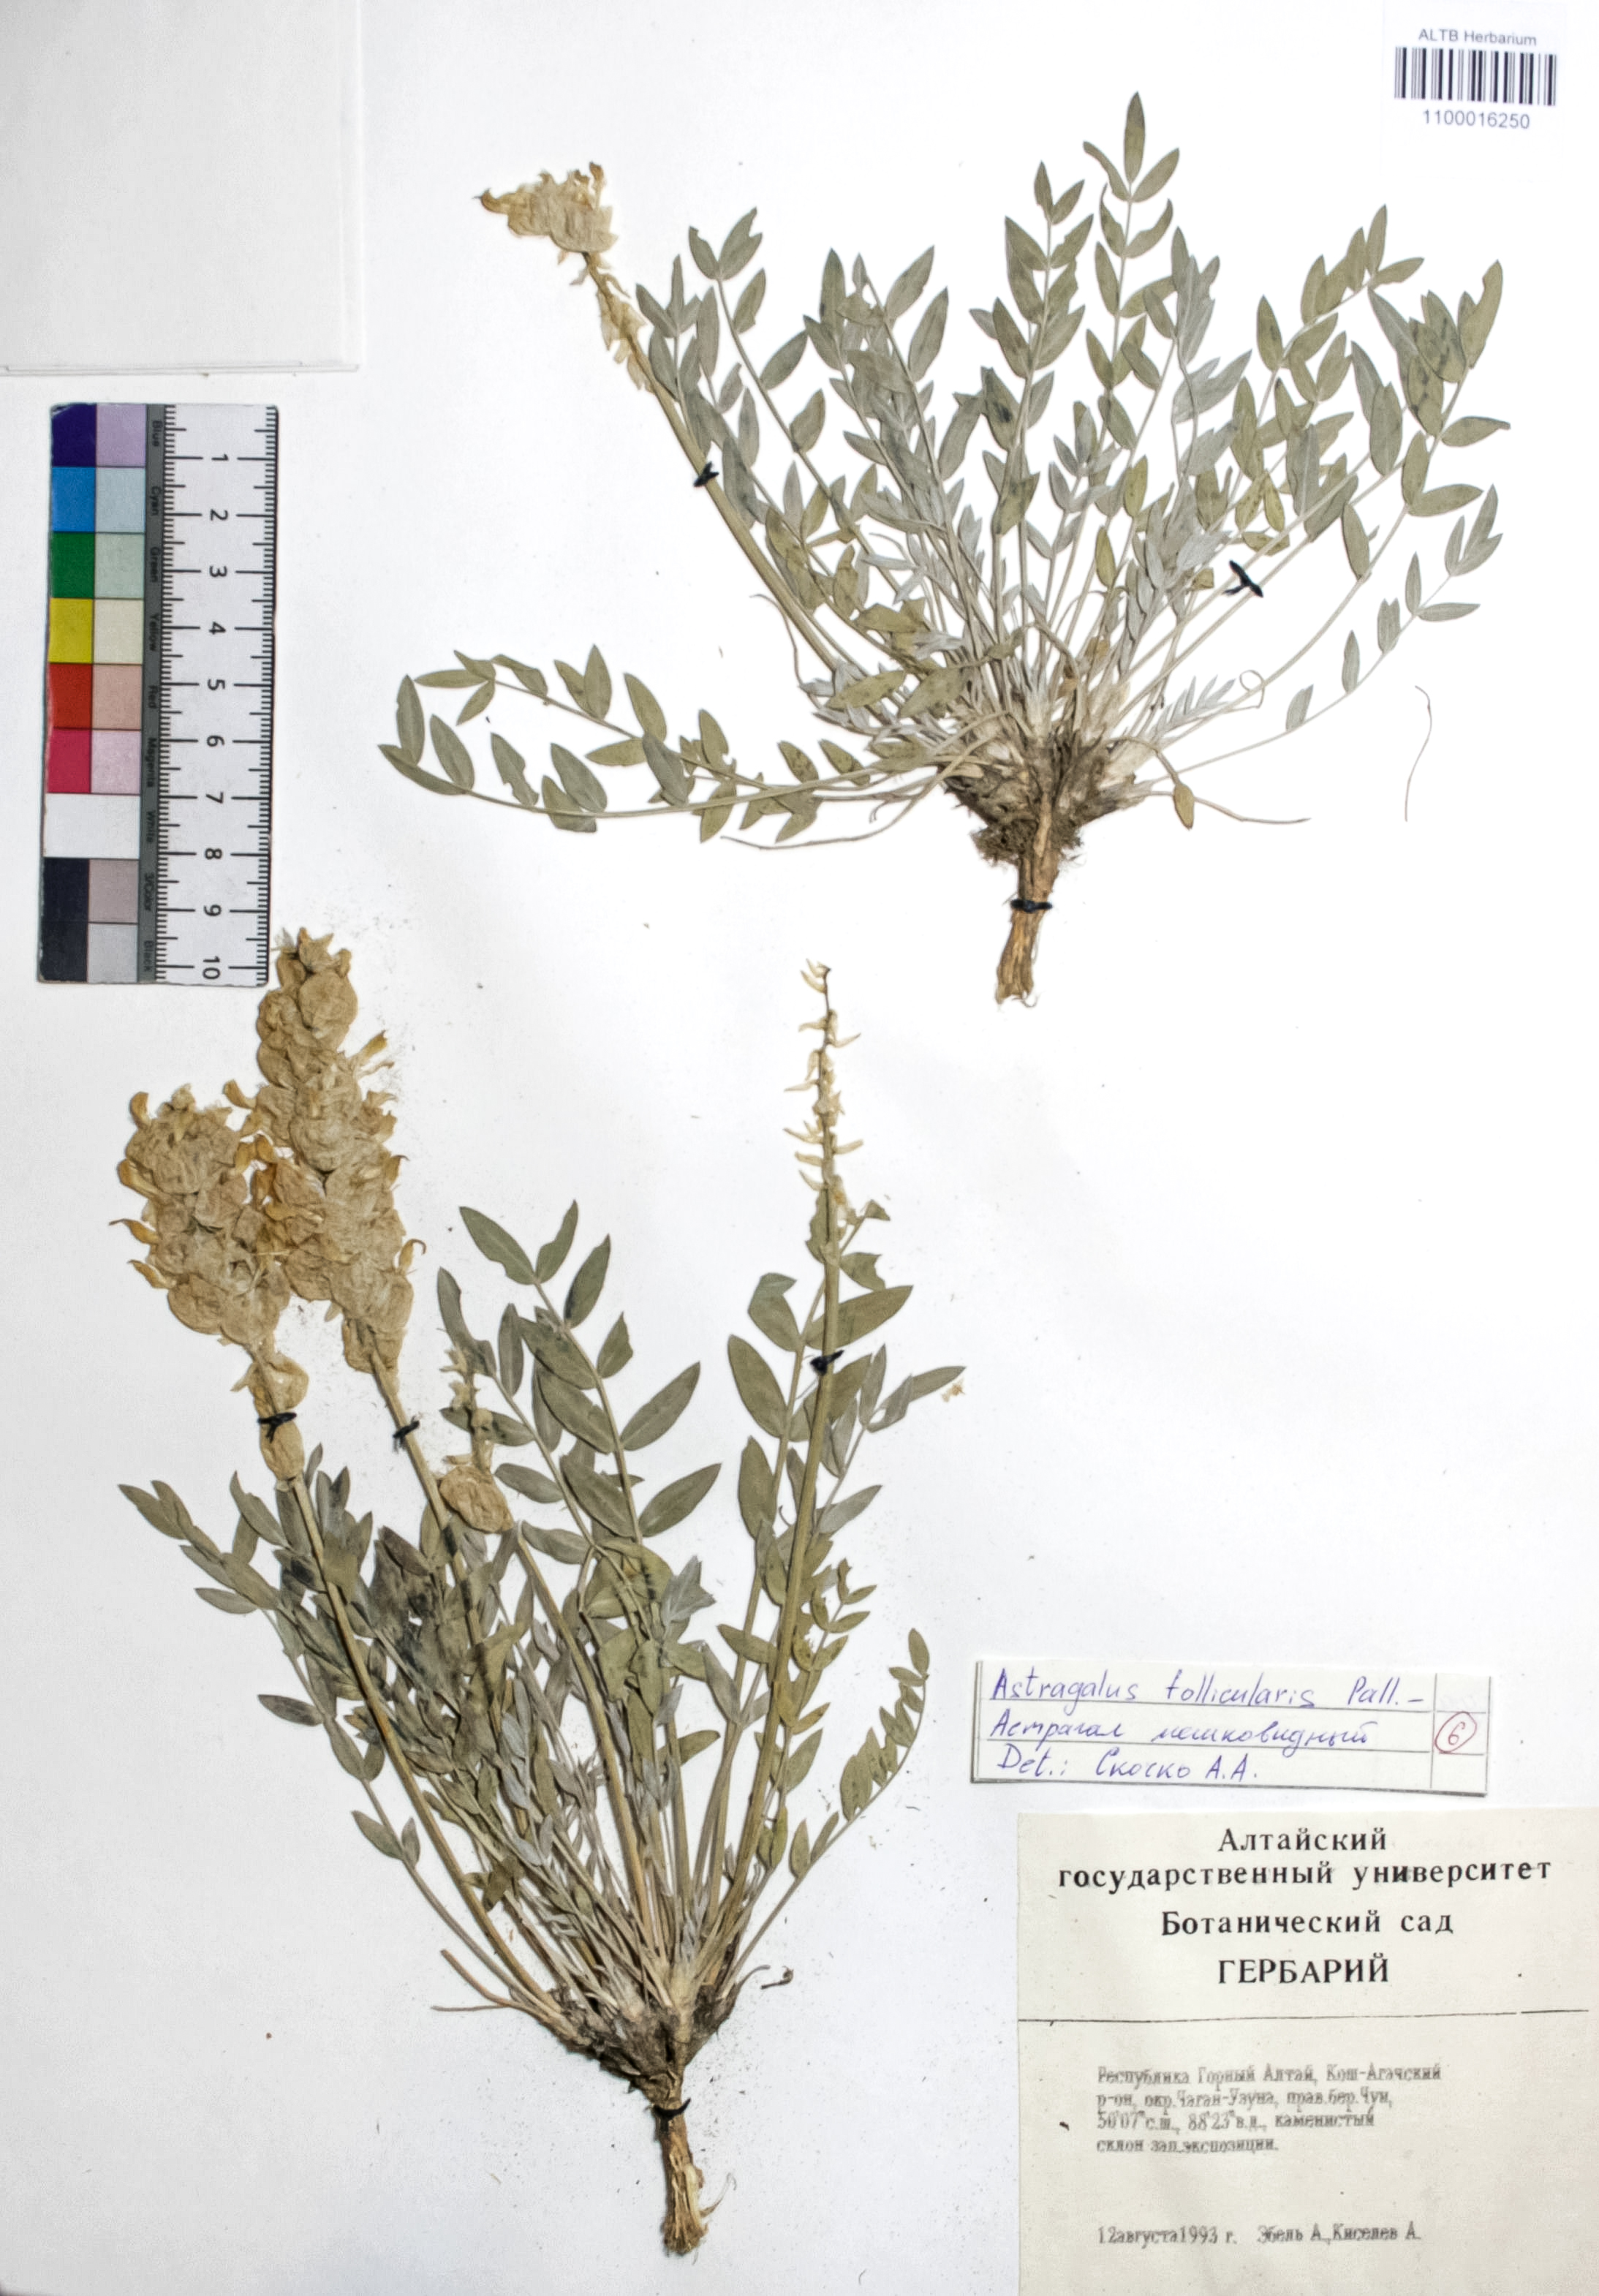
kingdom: Plantae
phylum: Tracheophyta
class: Magnoliopsida
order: Fabales
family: Fabaceae
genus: Astragalus
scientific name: Astragalus follicularis
